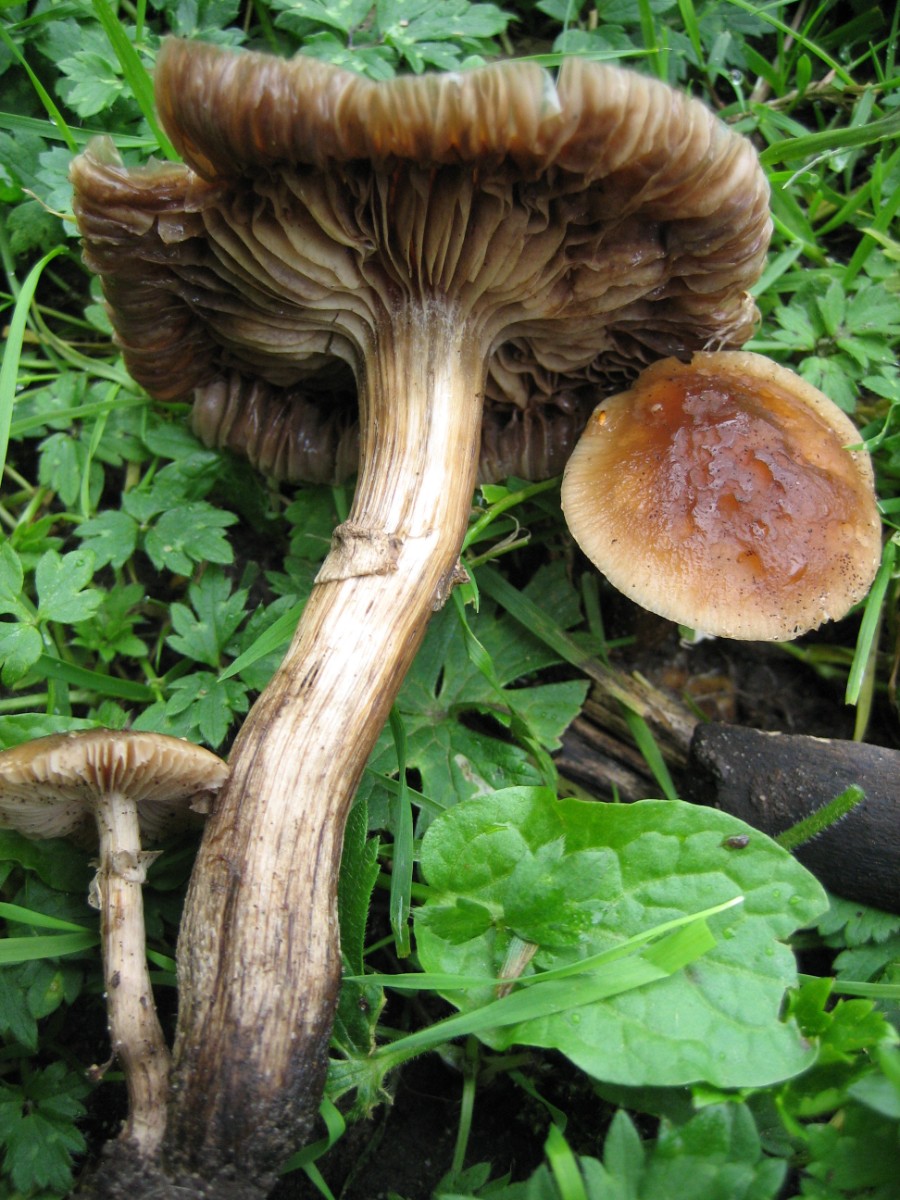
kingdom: Fungi
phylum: Basidiomycota
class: Agaricomycetes
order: Agaricales
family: Tubariaceae
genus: Cyclocybe
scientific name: Cyclocybe erebia
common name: mørk agerhat
